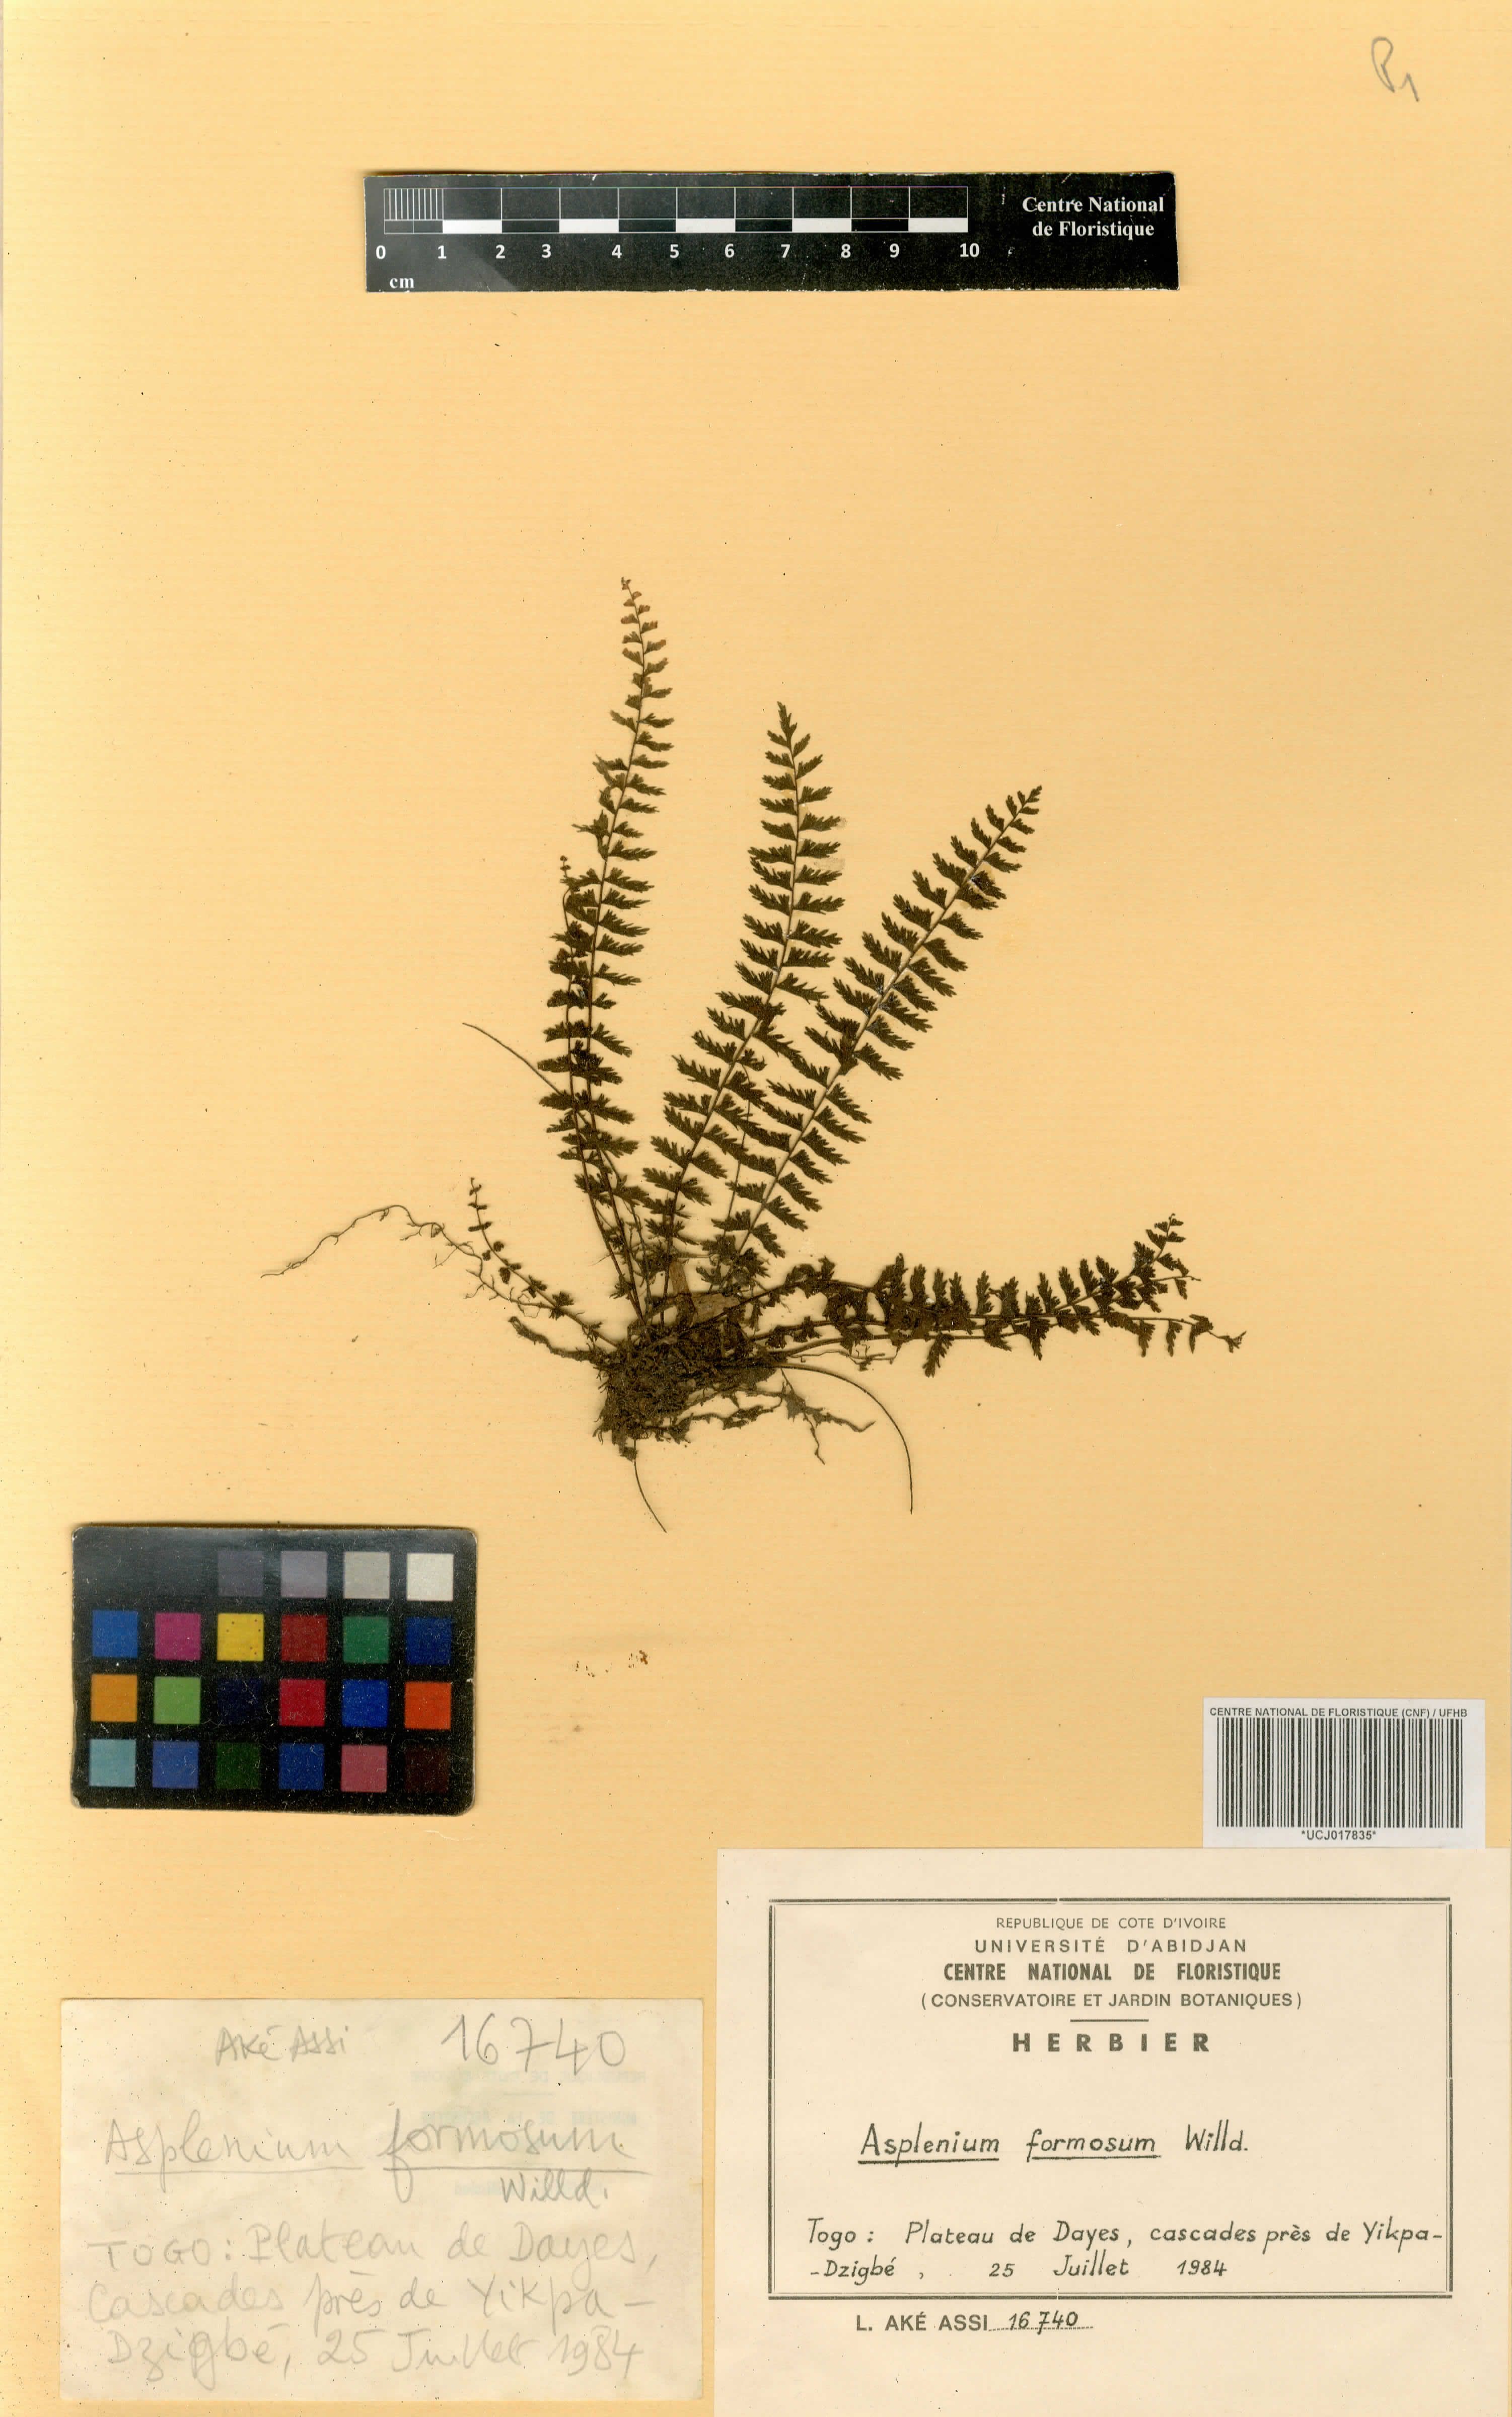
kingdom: Plantae
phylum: Tracheophyta
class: Polypodiopsida
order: Polypodiales
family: Aspleniaceae
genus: Asplenium
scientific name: Asplenium formosum
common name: Showy spleenwort
